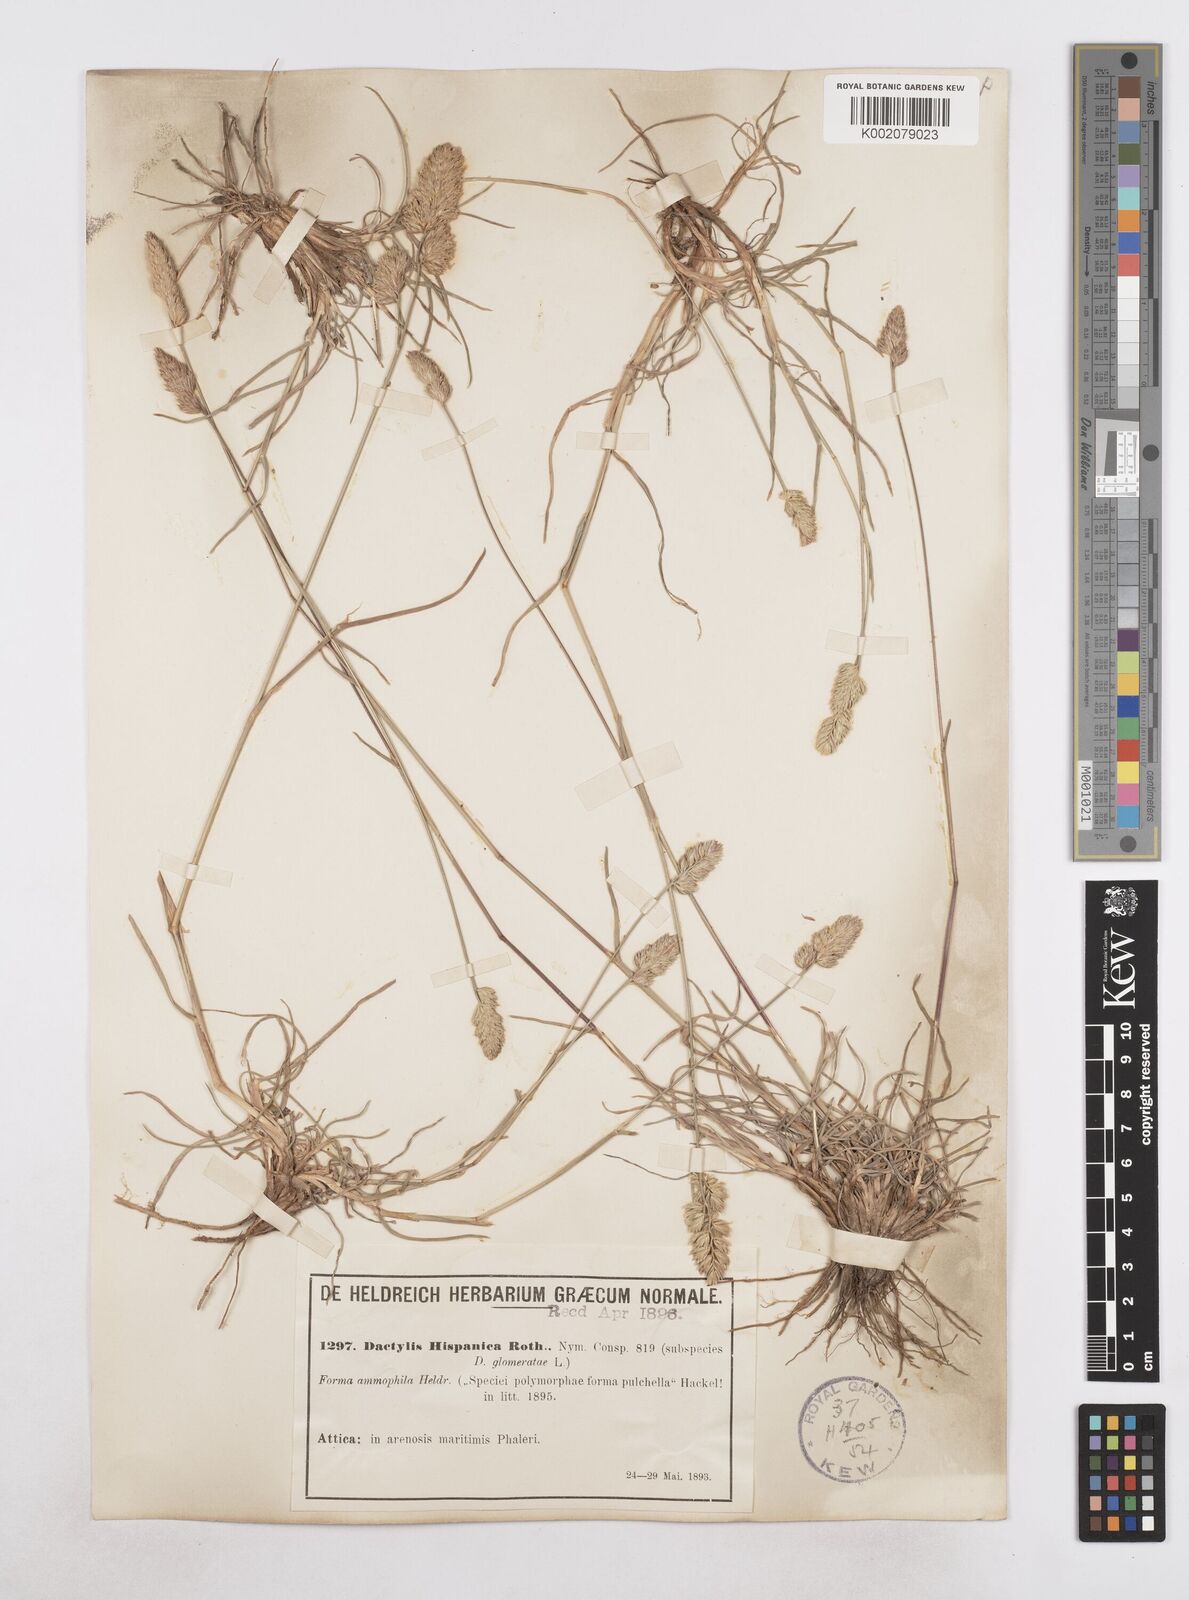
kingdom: Plantae
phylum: Tracheophyta
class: Liliopsida
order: Poales
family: Poaceae
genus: Dactylis
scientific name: Dactylis glomerata
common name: Orchardgrass
